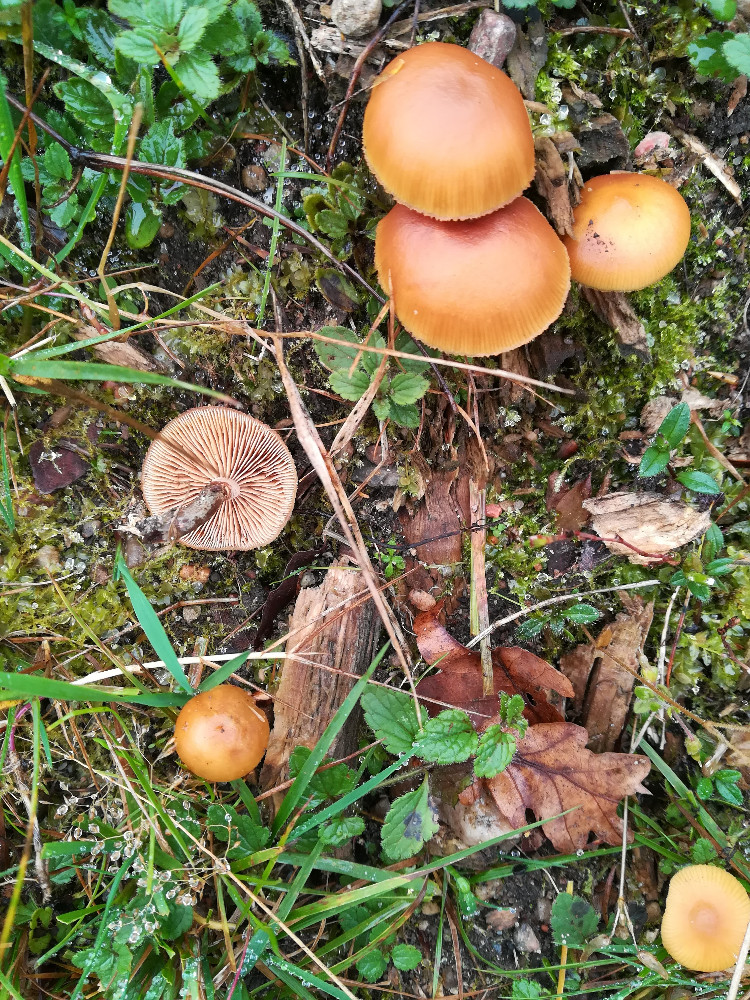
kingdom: Fungi
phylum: Basidiomycota
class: Agaricomycetes
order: Agaricales
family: Hymenogastraceae
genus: Galerina
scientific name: Galerina marginata
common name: randbæltet hjelmhat
